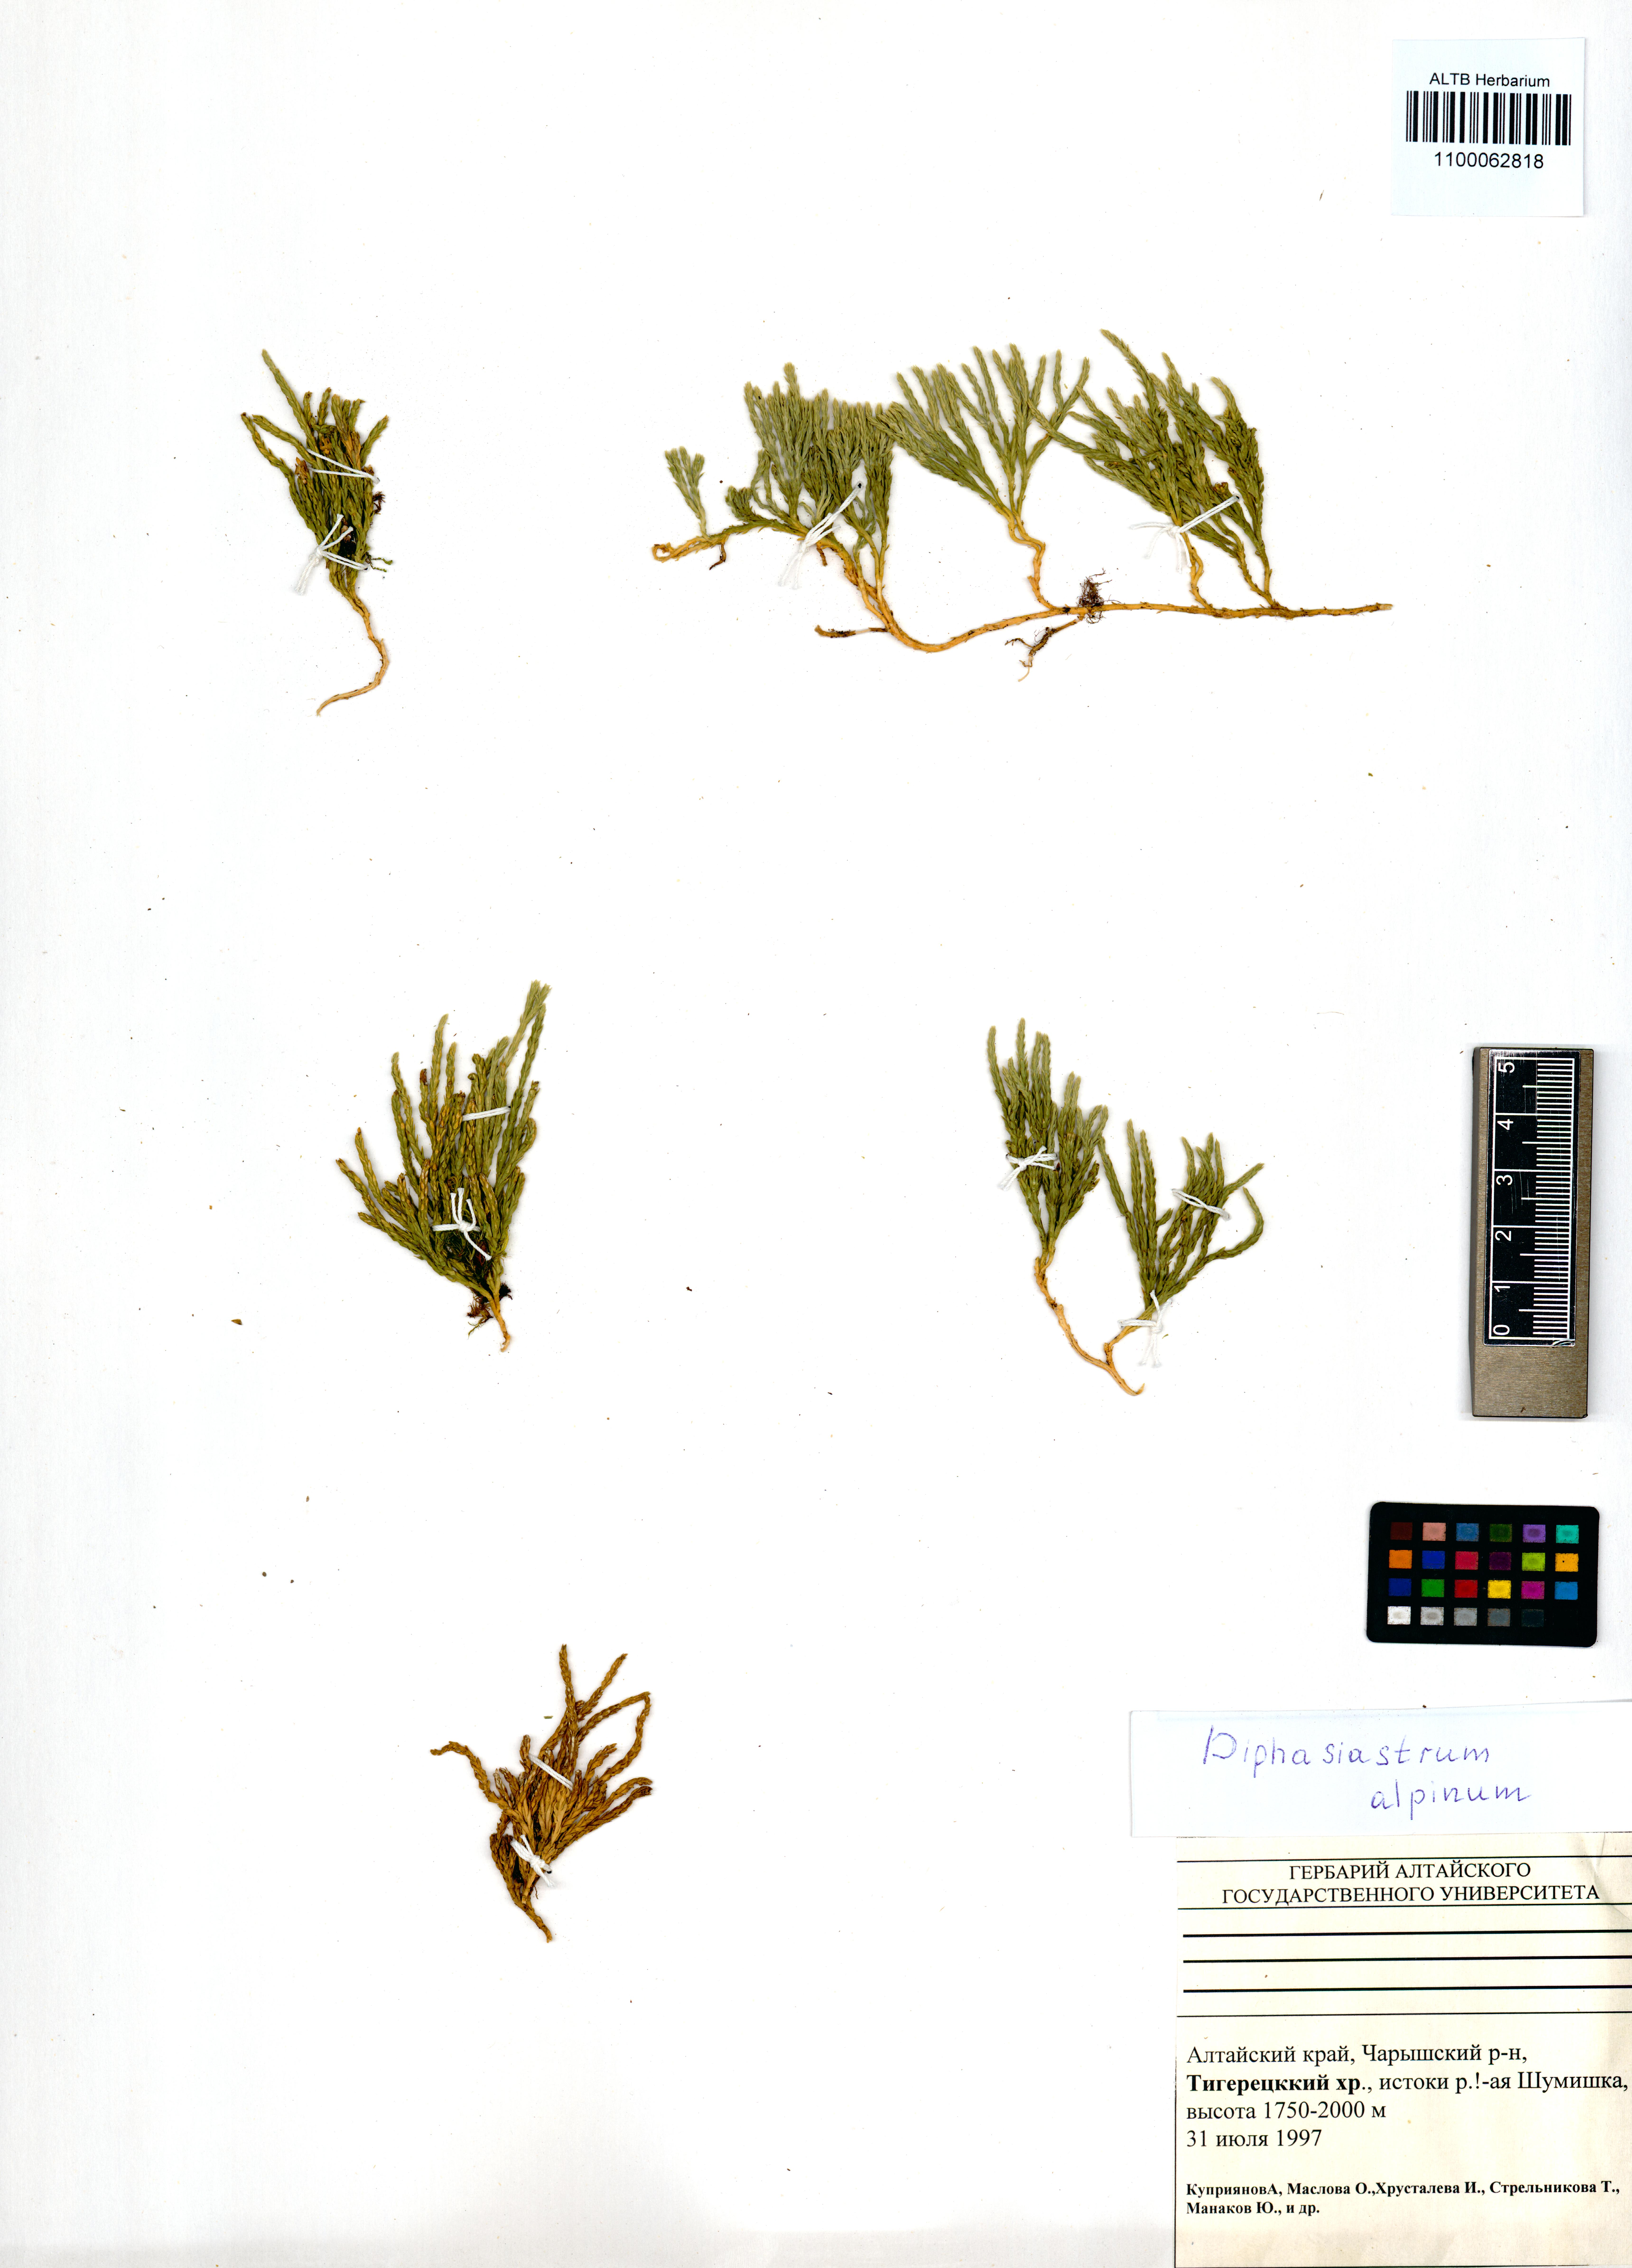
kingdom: Plantae
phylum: Tracheophyta
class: Lycopodiopsida
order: Lycopodiales
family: Lycopodiaceae
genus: Diphasiastrum
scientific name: Diphasiastrum alpinum
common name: Alpine clubmoss
